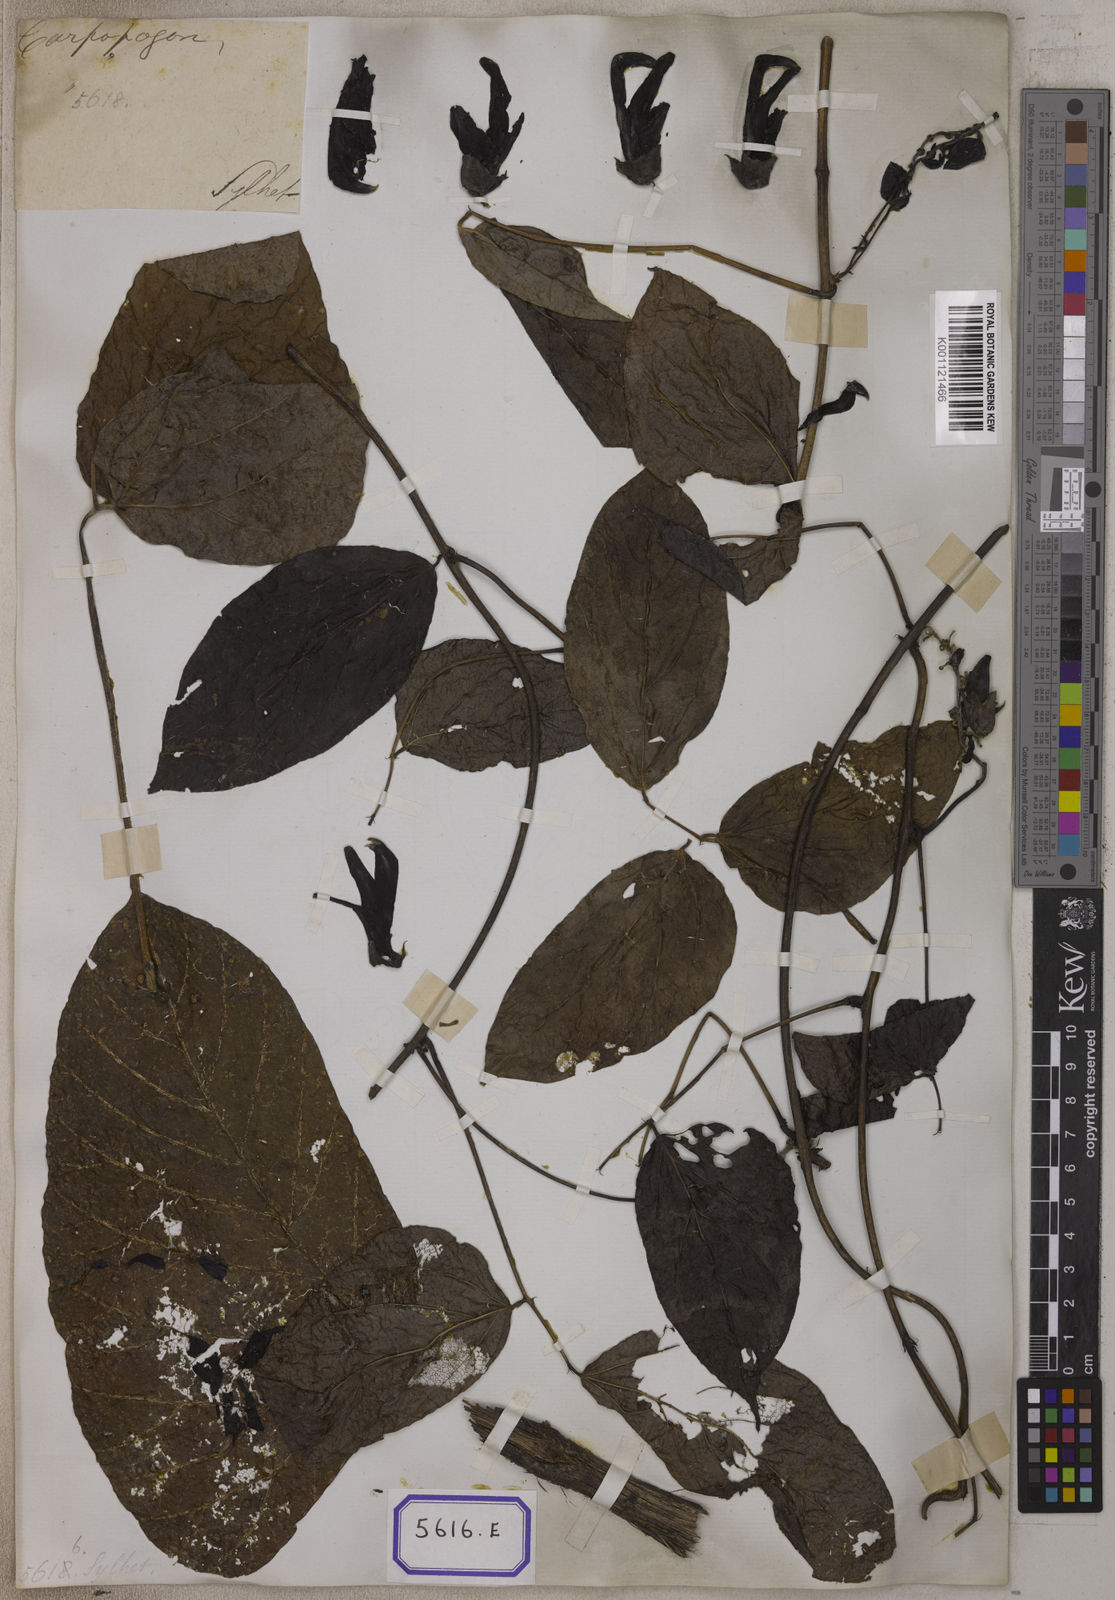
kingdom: Plantae
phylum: Tracheophyta
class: Magnoliopsida
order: Fabales
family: Fabaceae
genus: Mucuna
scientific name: Mucuna pruriens
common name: Cow-itch
